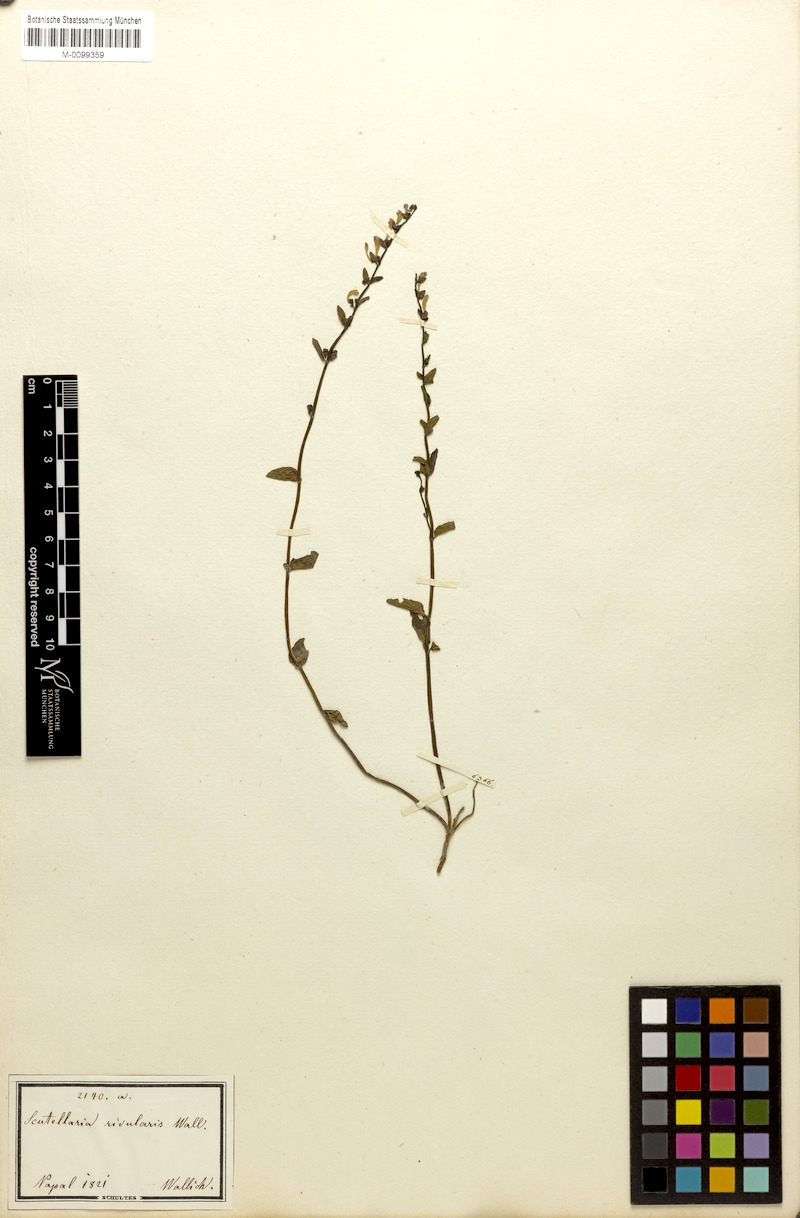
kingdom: Plantae
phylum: Tracheophyta
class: Magnoliopsida
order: Lamiales
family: Lamiaceae
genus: Scutellaria
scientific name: Scutellaria barbata
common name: Barbed skullcap
